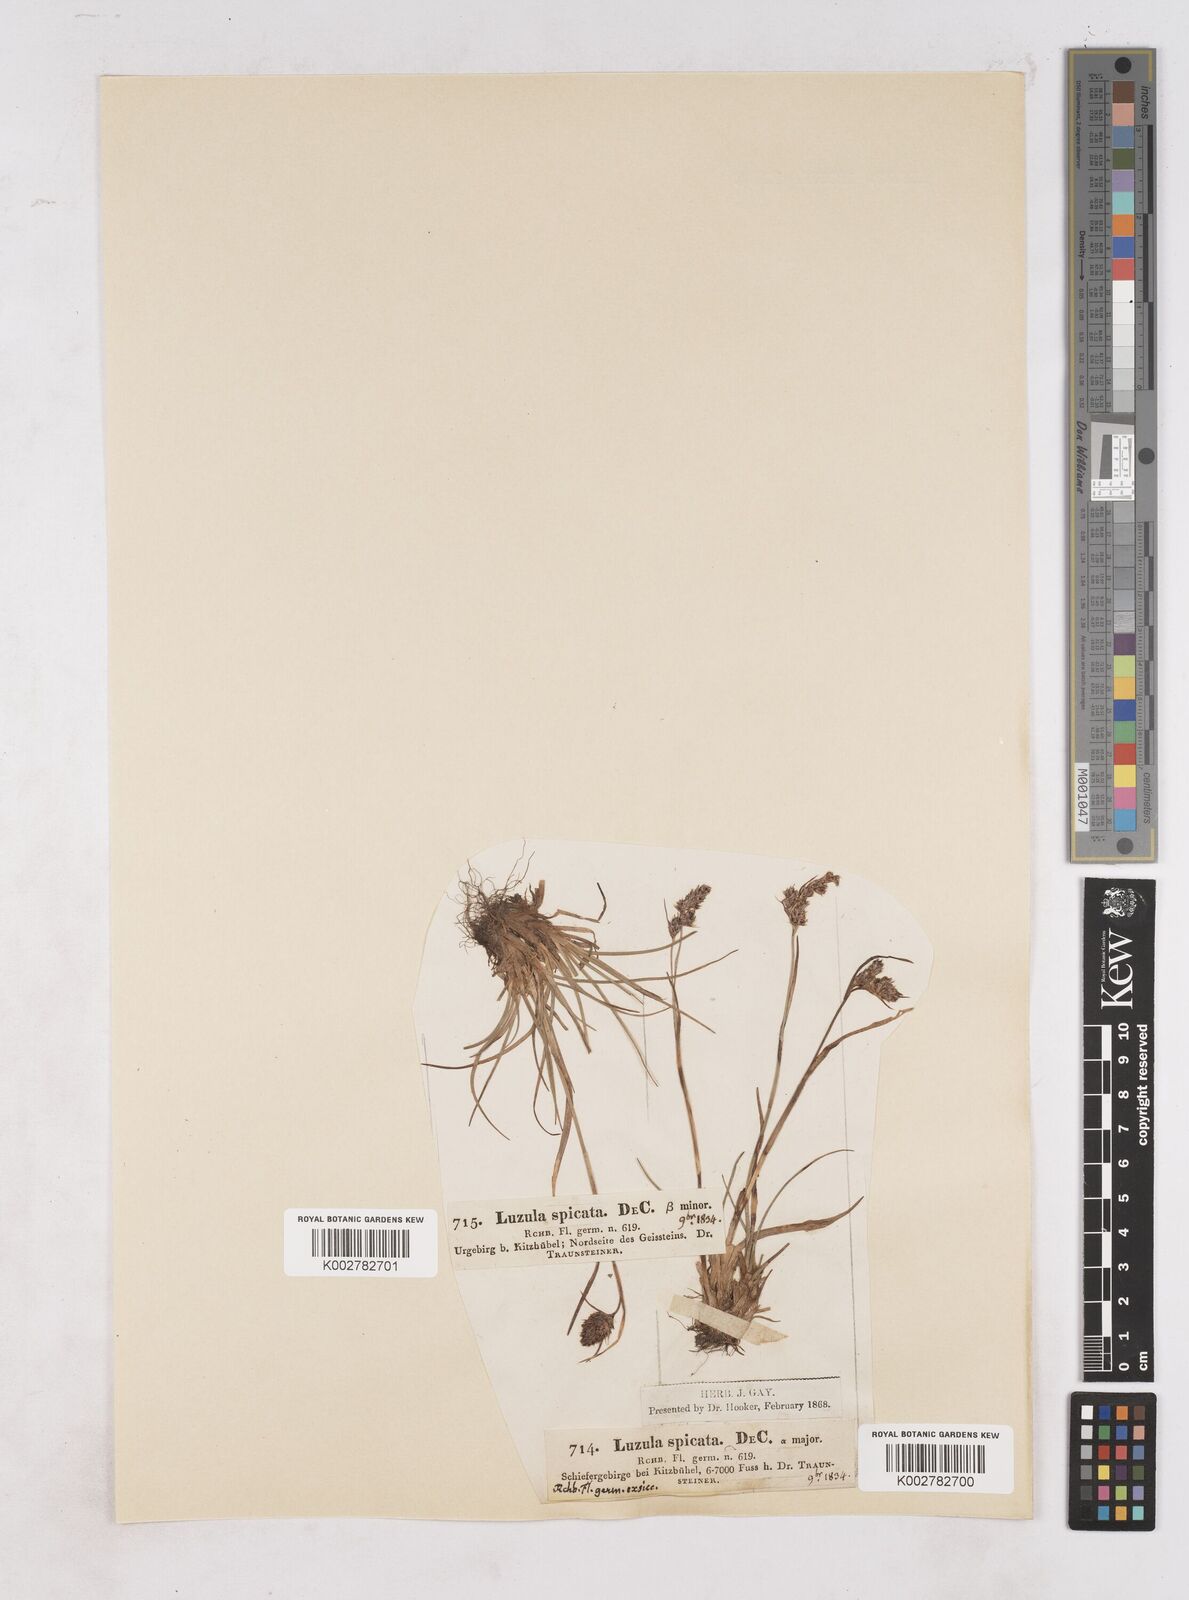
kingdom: Plantae
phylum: Tracheophyta
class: Liliopsida
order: Poales
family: Juncaceae
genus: Luzula
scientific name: Luzula spicata
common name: Spiked wood-rush
